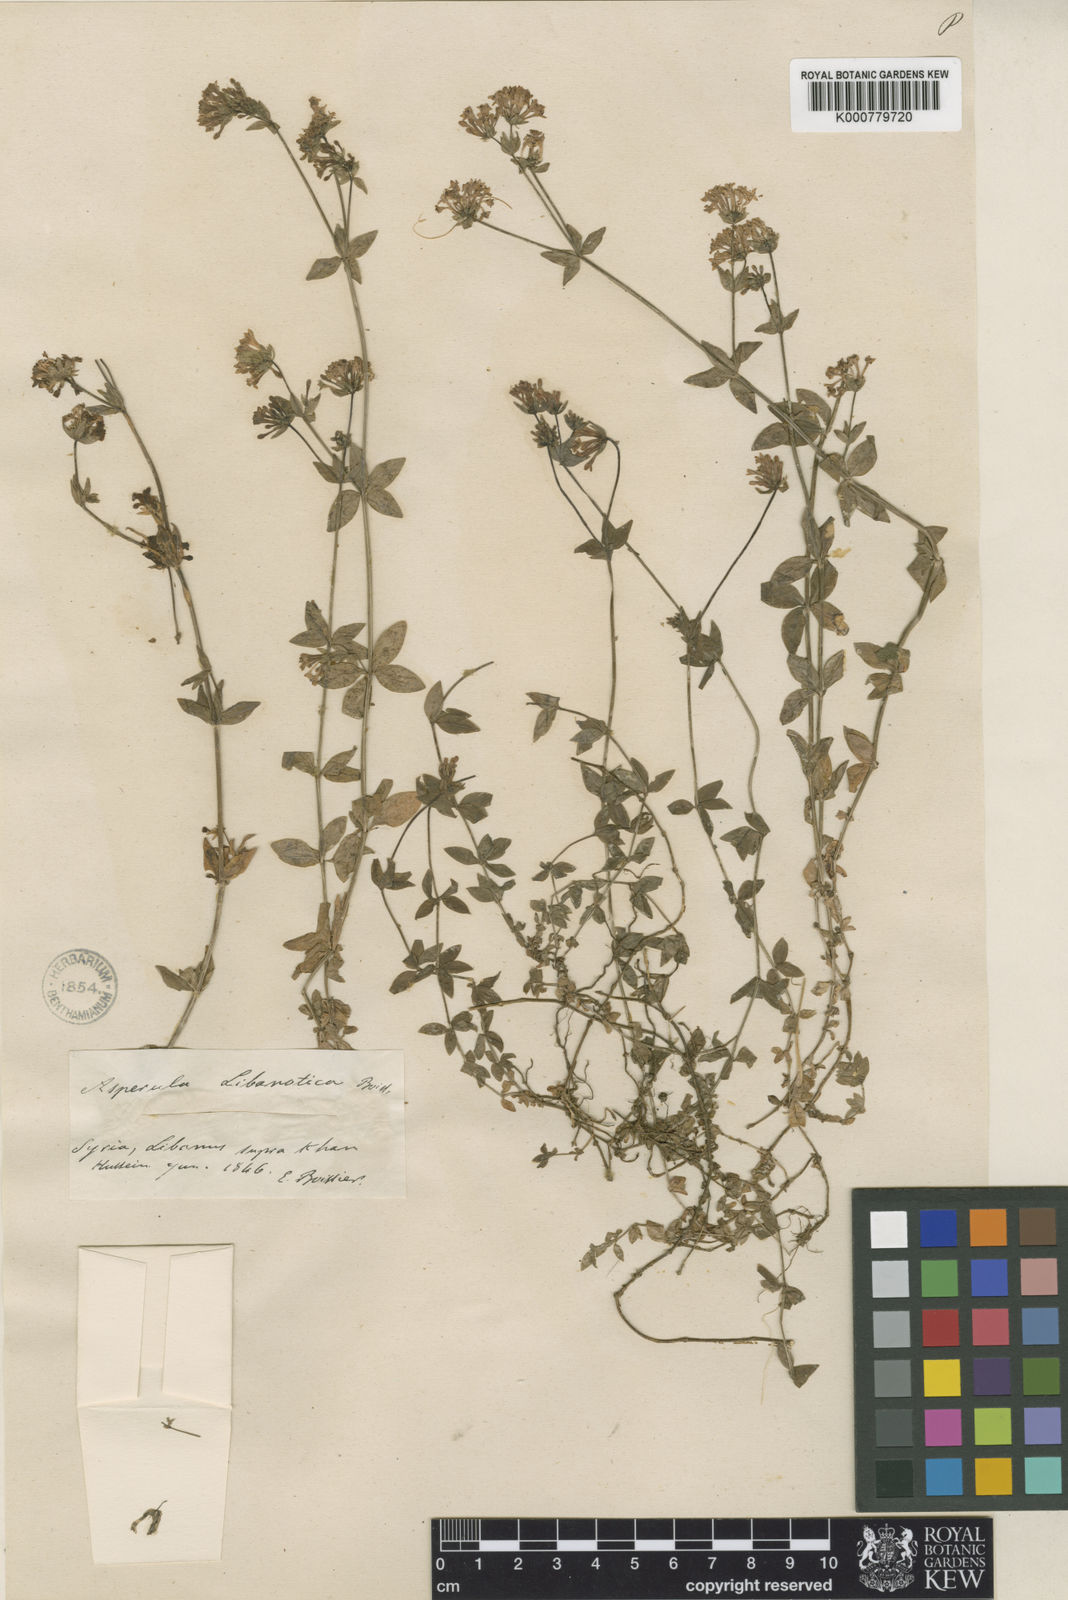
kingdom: Plantae
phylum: Tracheophyta
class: Magnoliopsida
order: Gentianales
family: Rubiaceae
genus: Asperula
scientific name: Asperula libanotica
